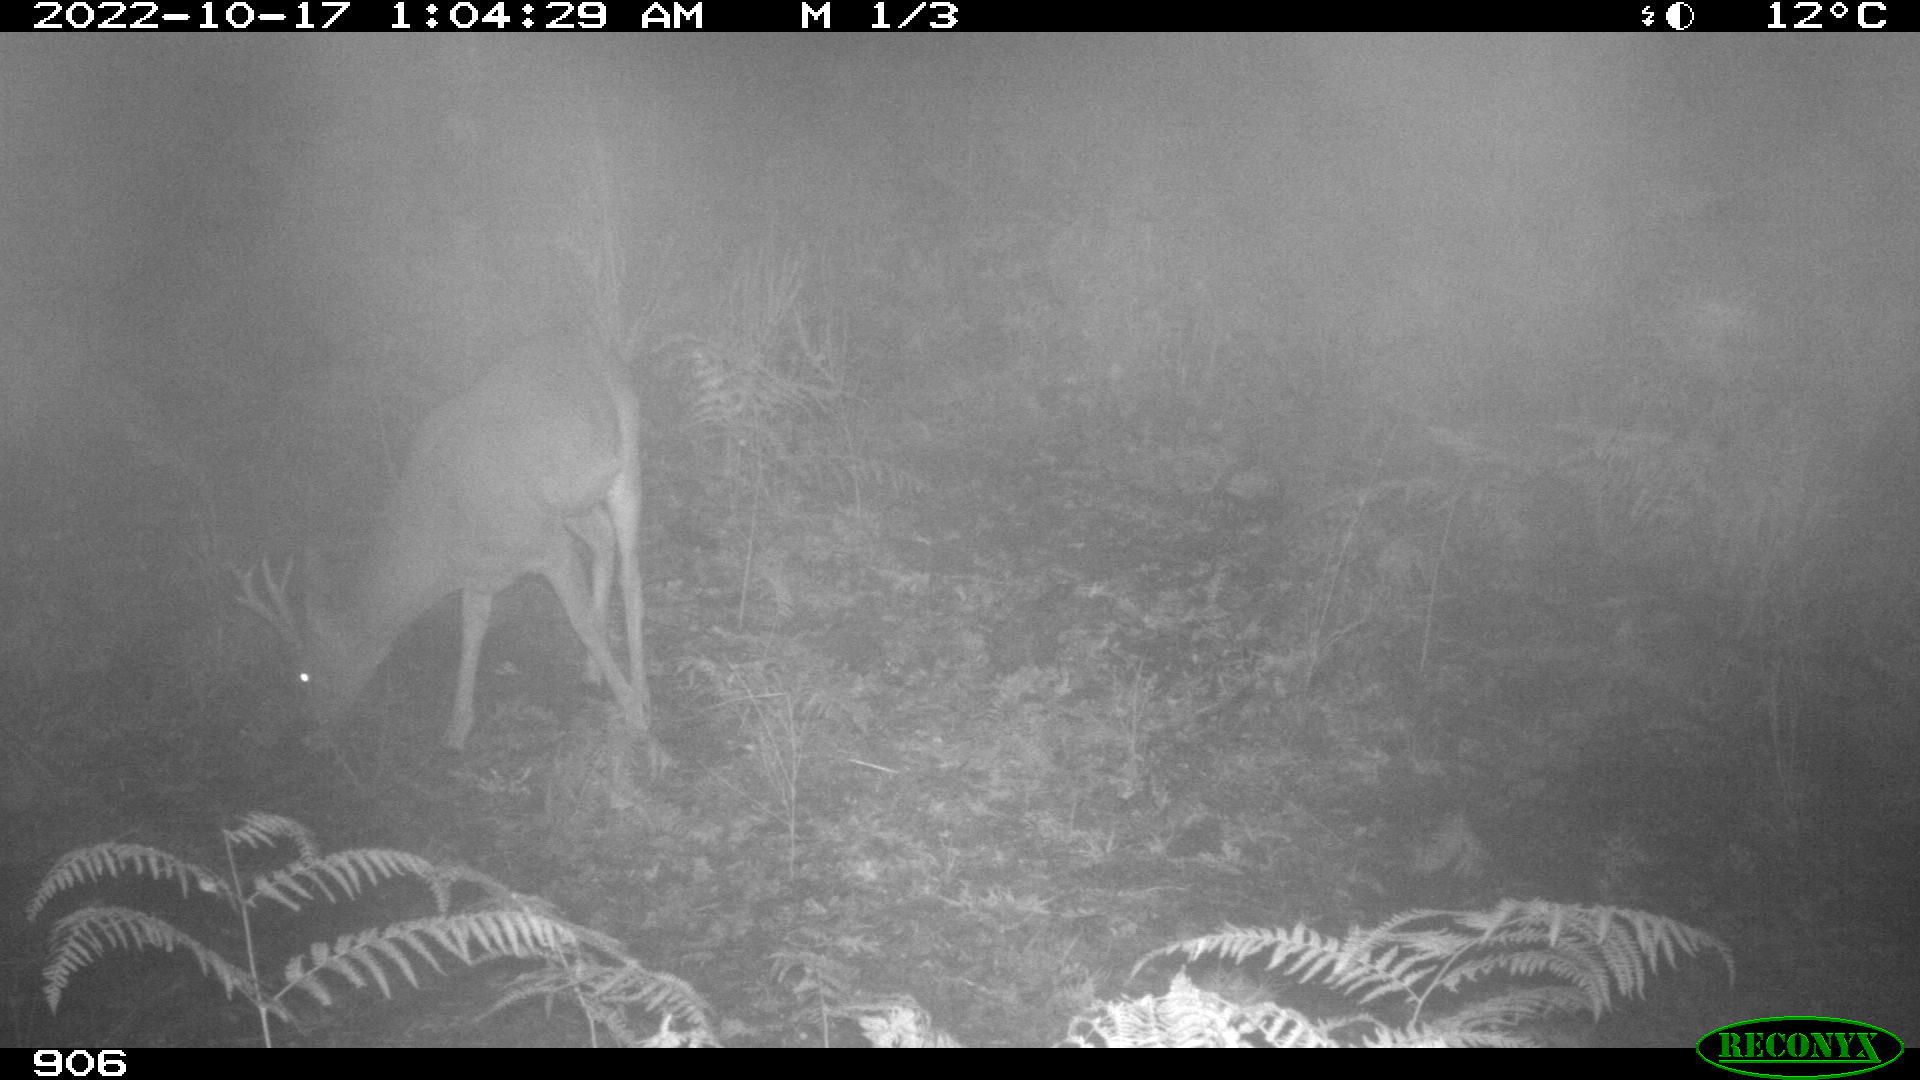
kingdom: Animalia
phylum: Chordata
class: Mammalia
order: Artiodactyla
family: Cervidae
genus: Capreolus
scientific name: Capreolus capreolus
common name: Western roe deer
